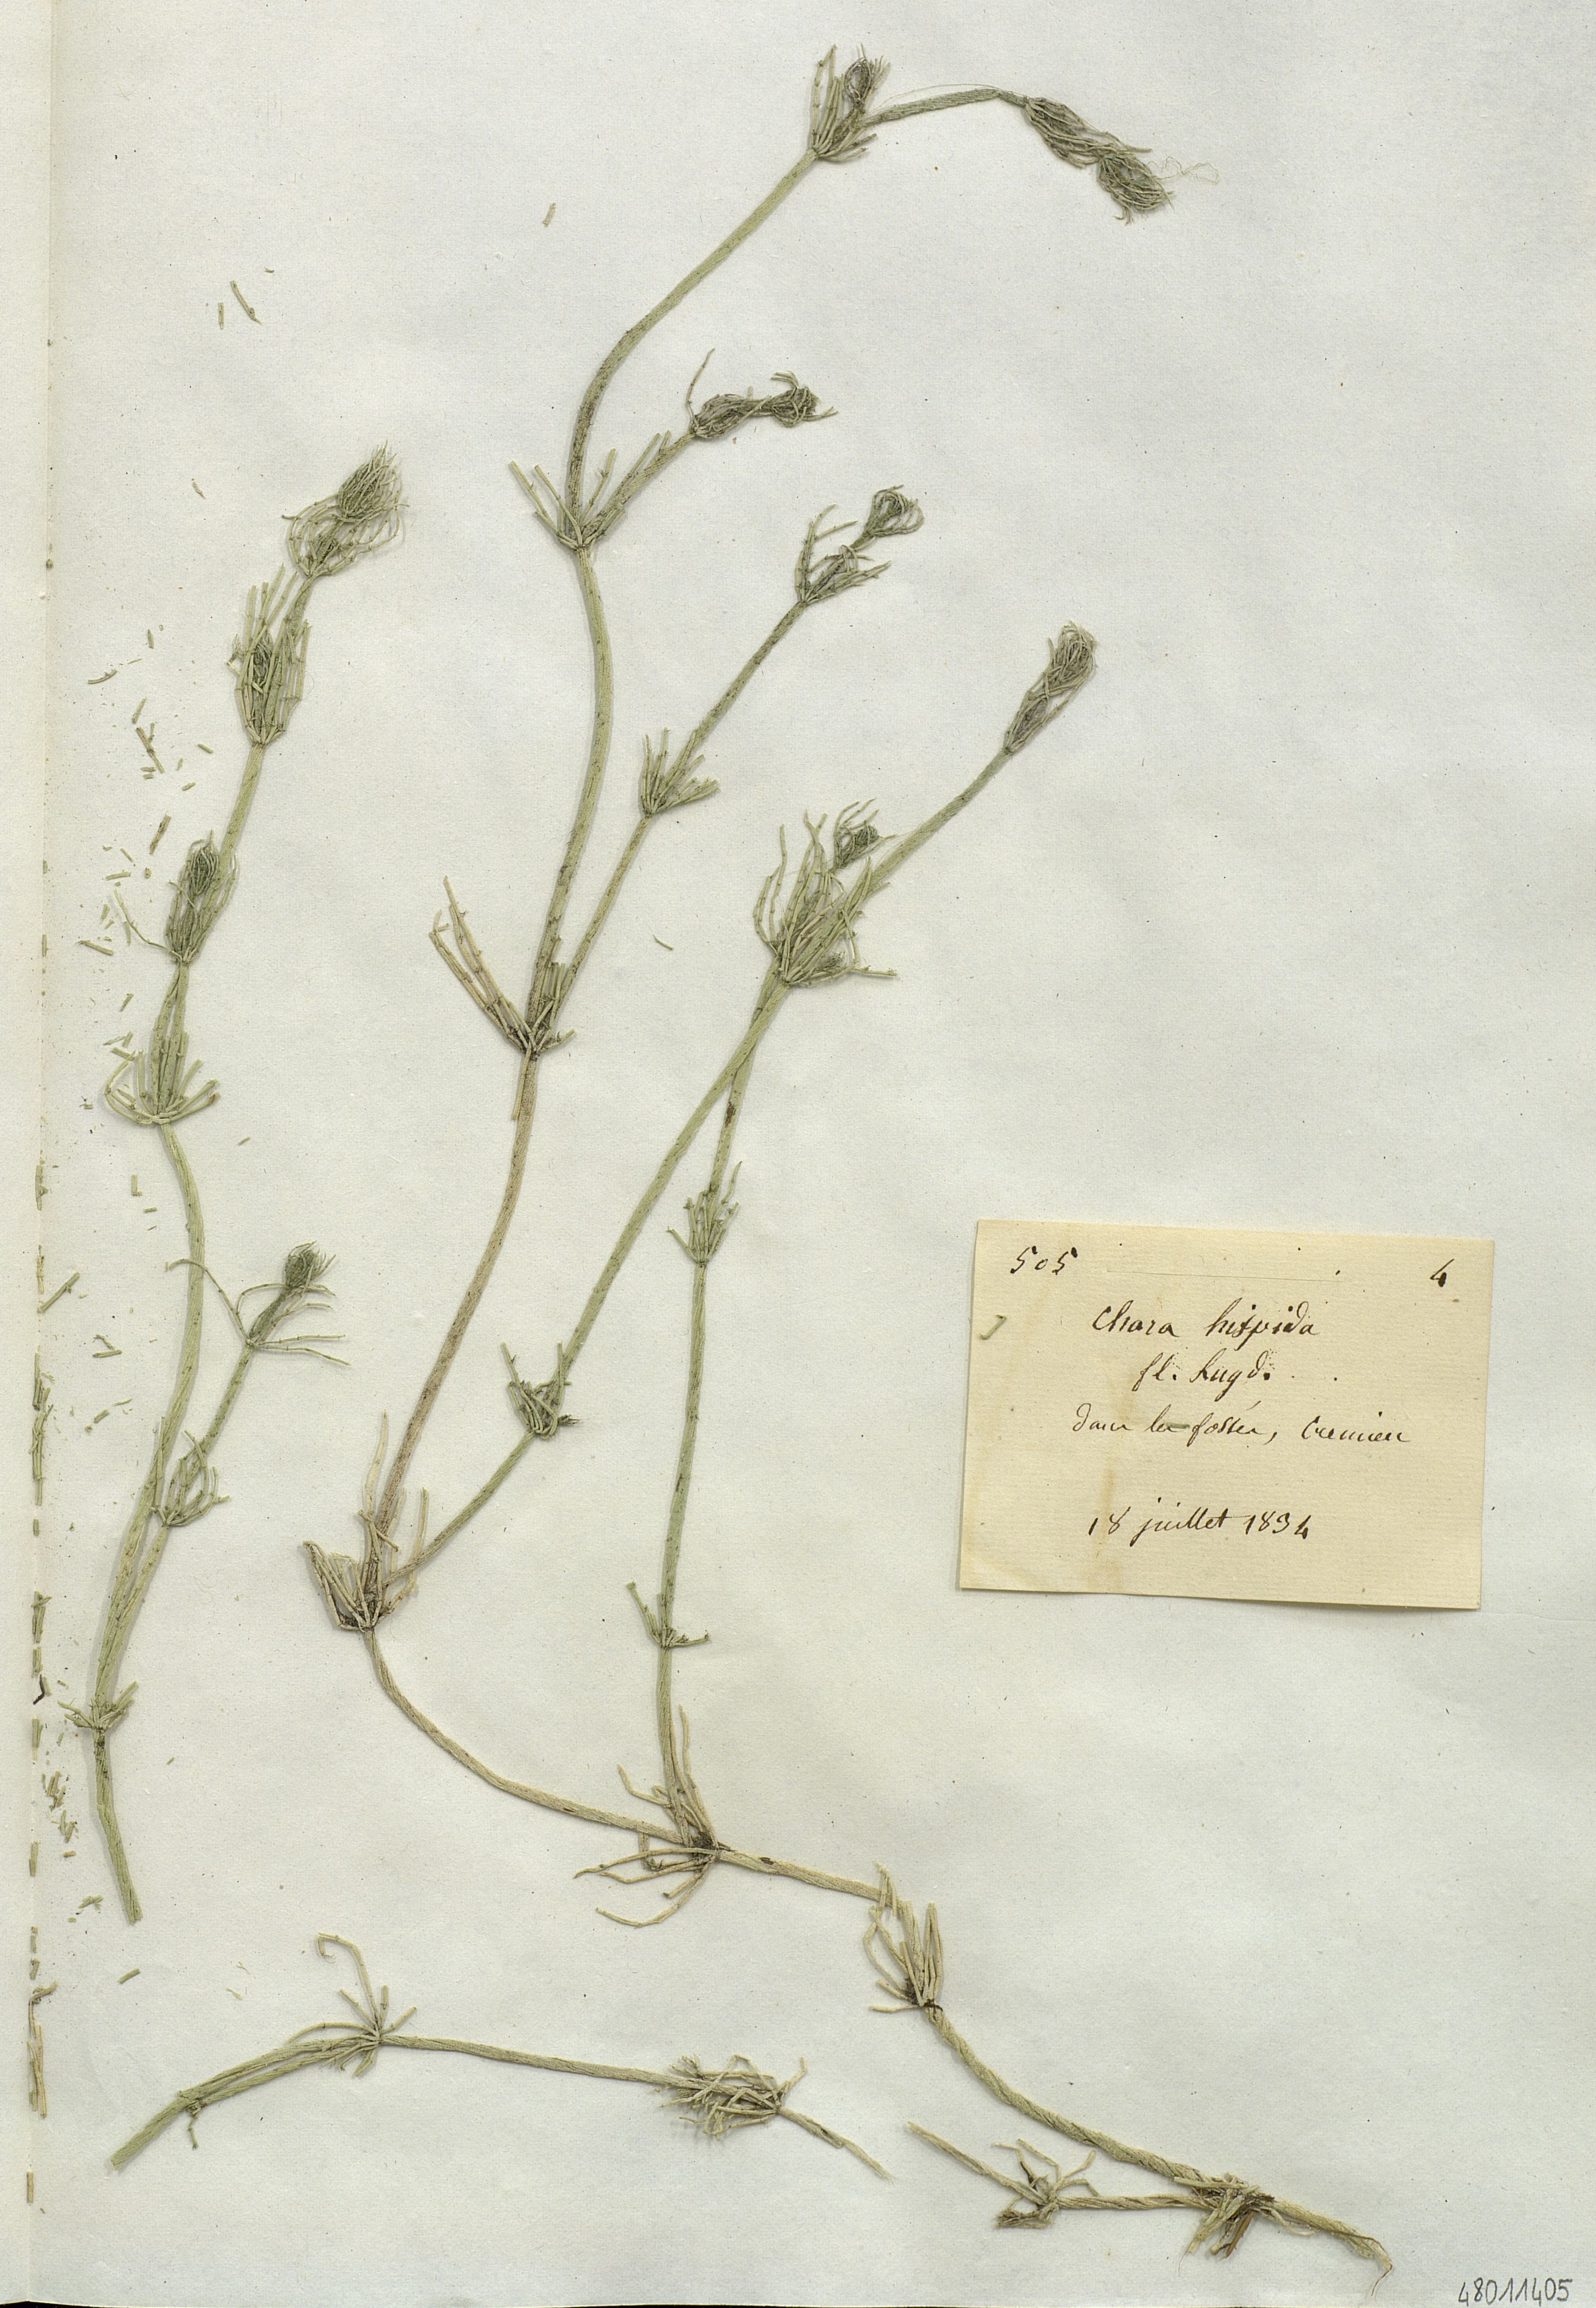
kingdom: Plantae
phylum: Charophyta
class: Charophyceae
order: Charales
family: Characeae
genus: Chara
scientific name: Chara hispida
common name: Bristly stonewort
